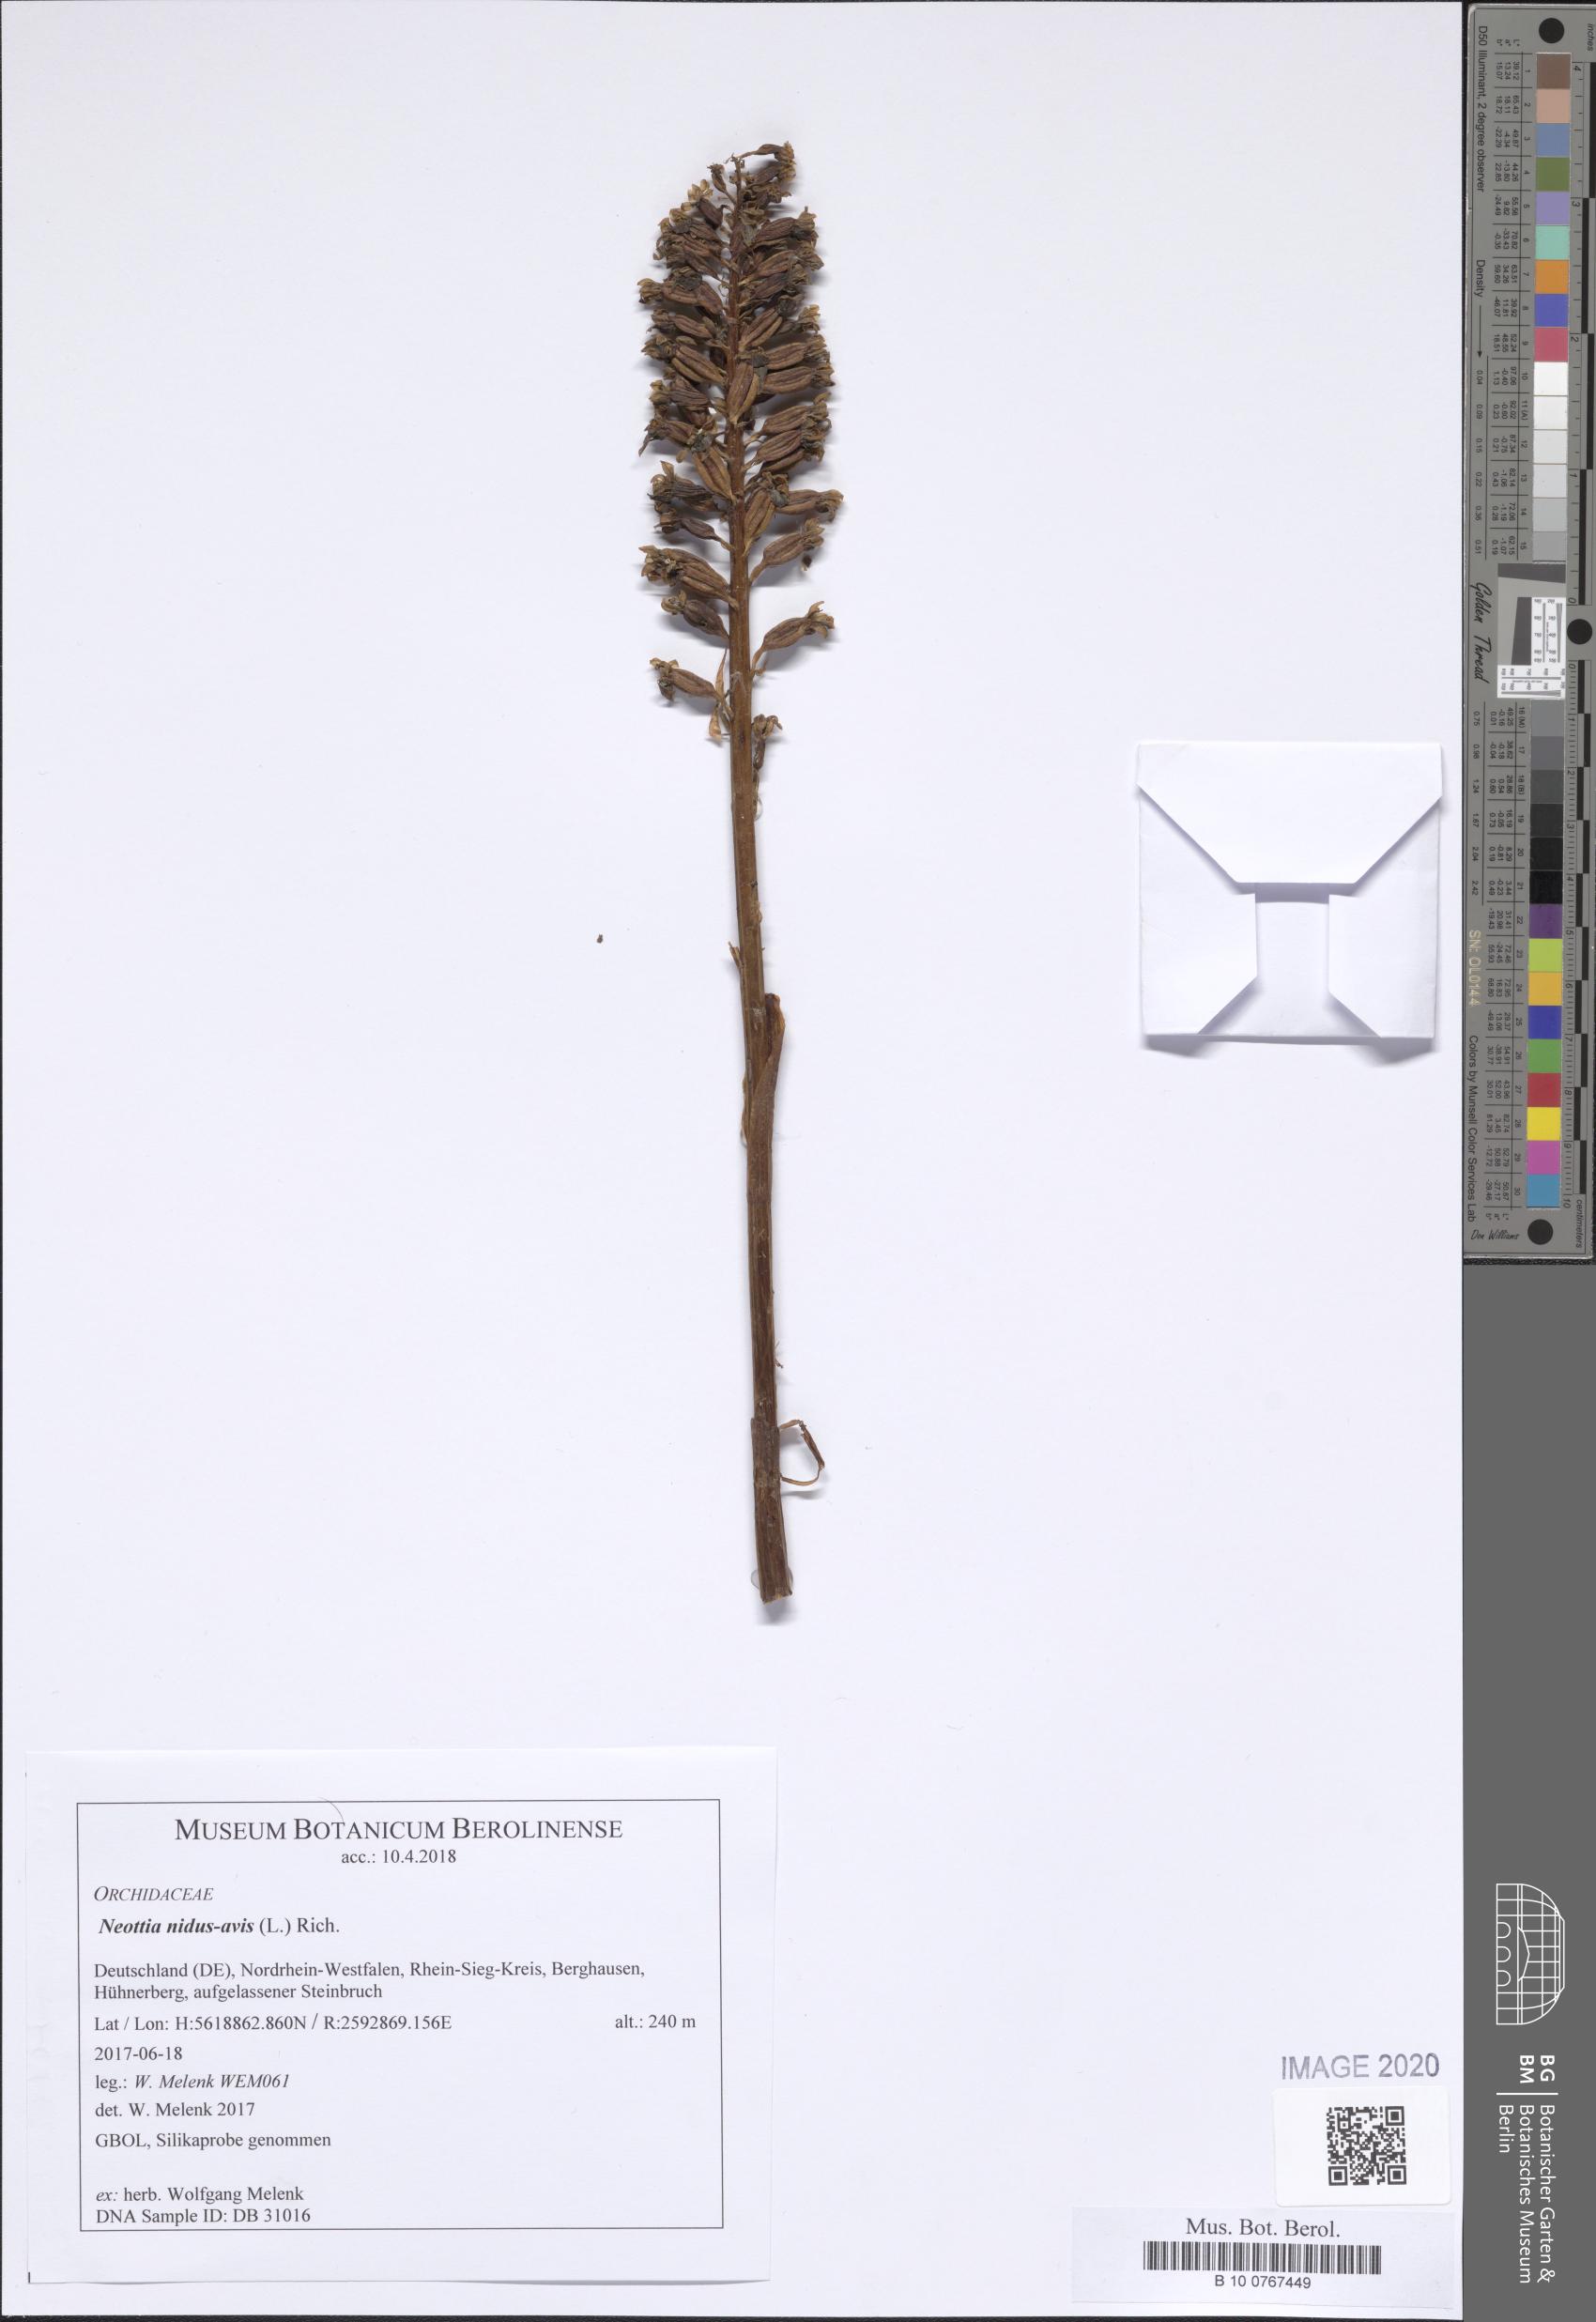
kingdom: Plantae
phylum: Tracheophyta
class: Liliopsida
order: Asparagales
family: Orchidaceae
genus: Neottia
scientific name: Neottia nidus-avis
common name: Bird's-nest orchid
